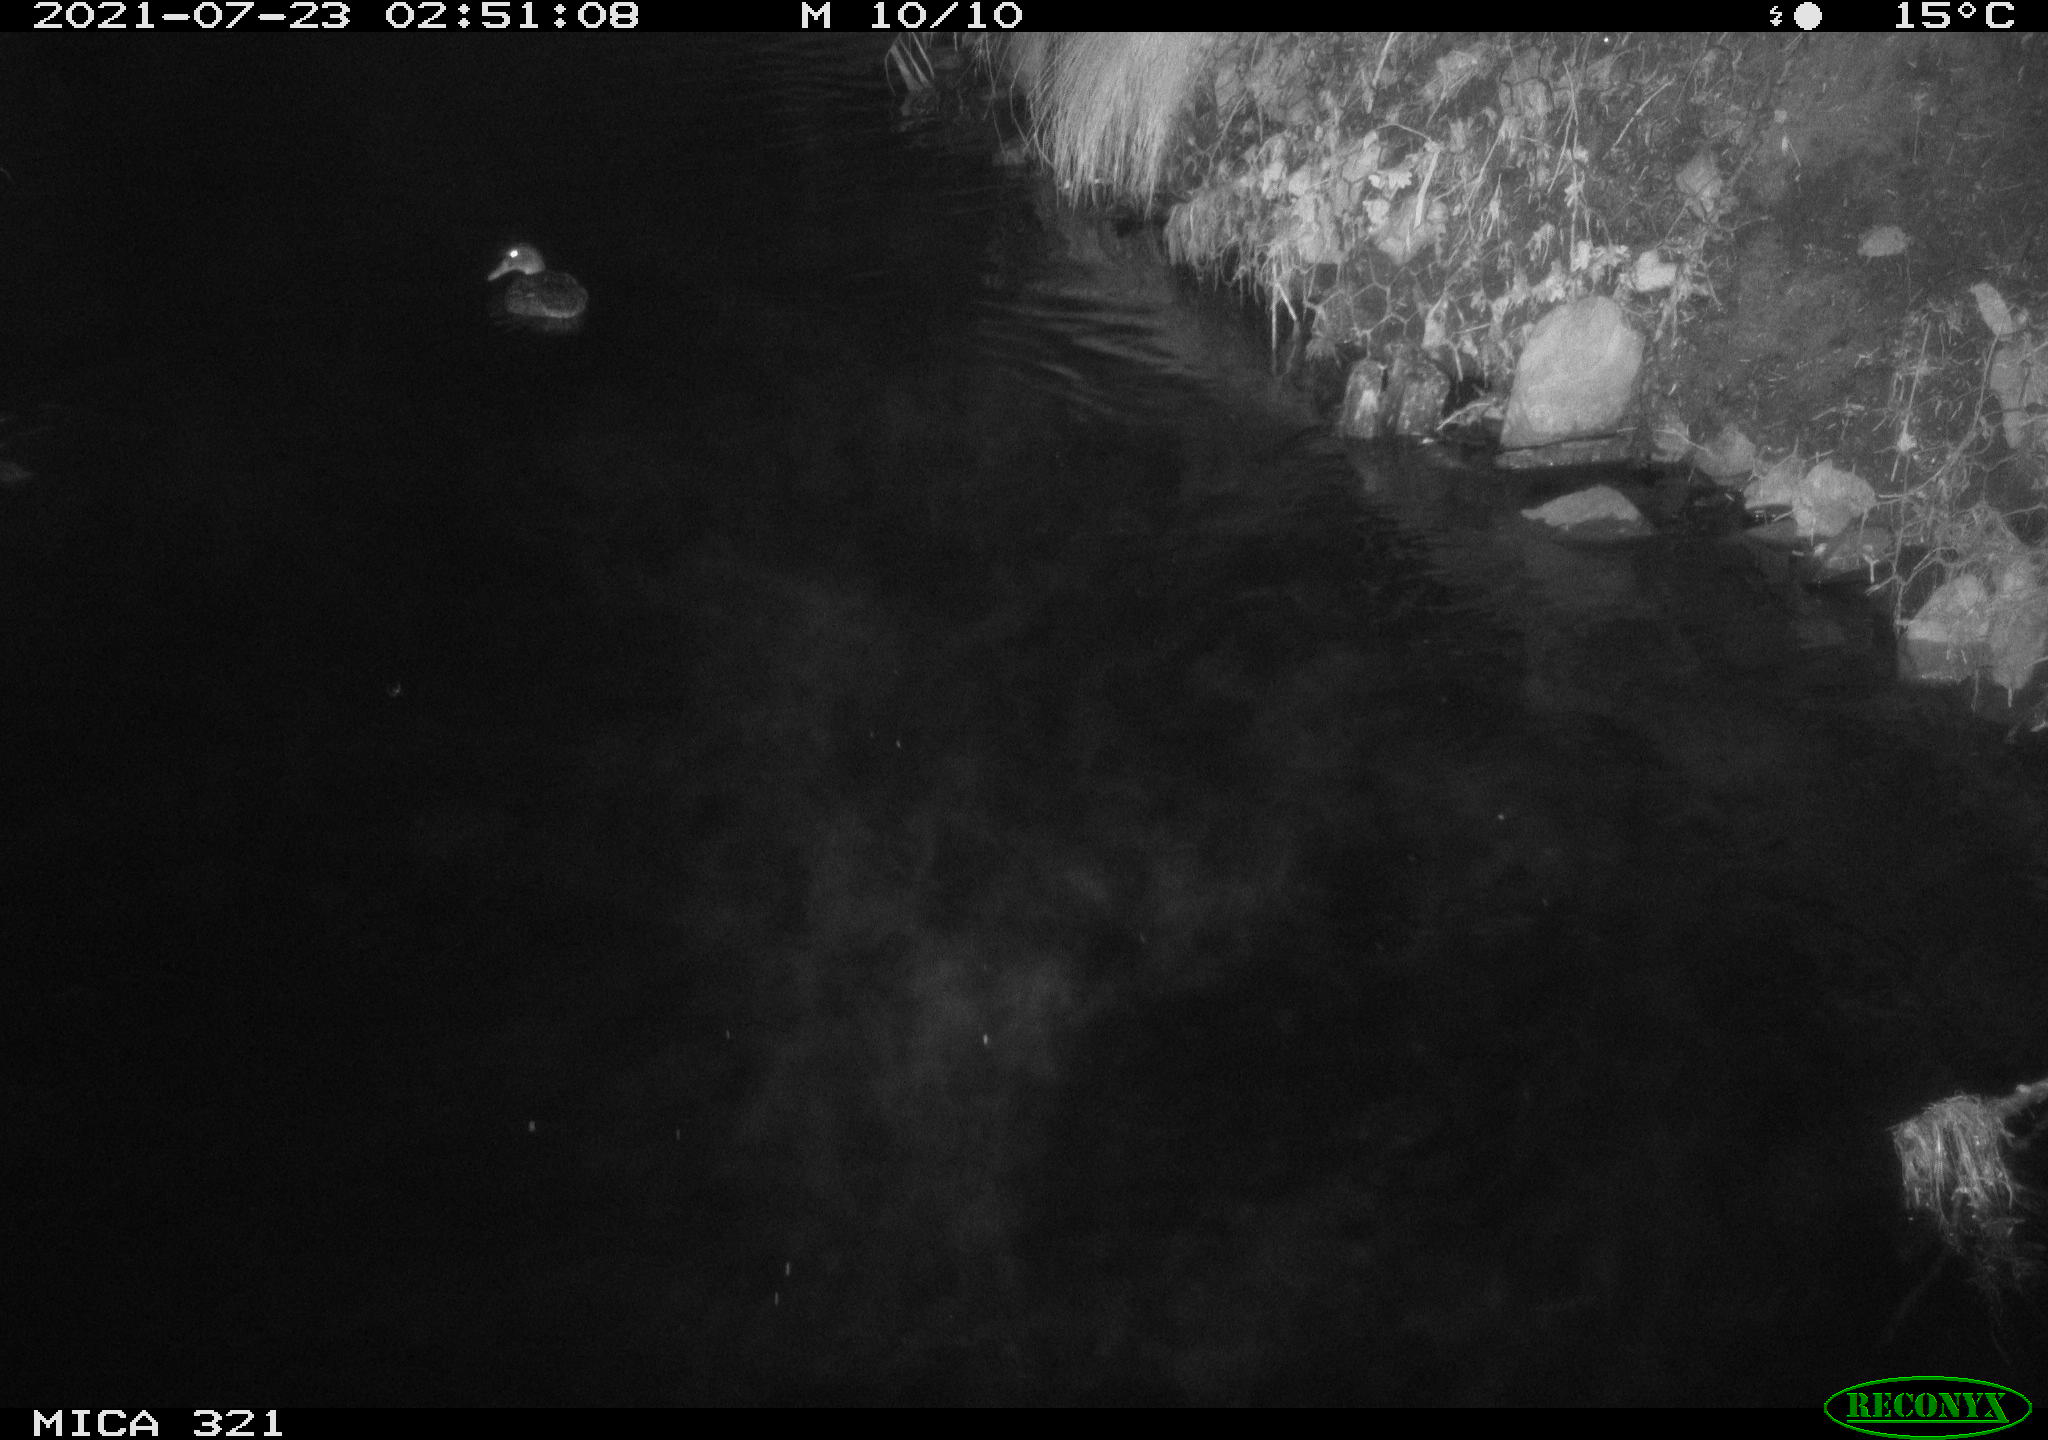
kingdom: Animalia
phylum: Chordata
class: Aves
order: Anseriformes
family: Anatidae
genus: Anas
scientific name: Anas platyrhynchos
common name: Mallard
